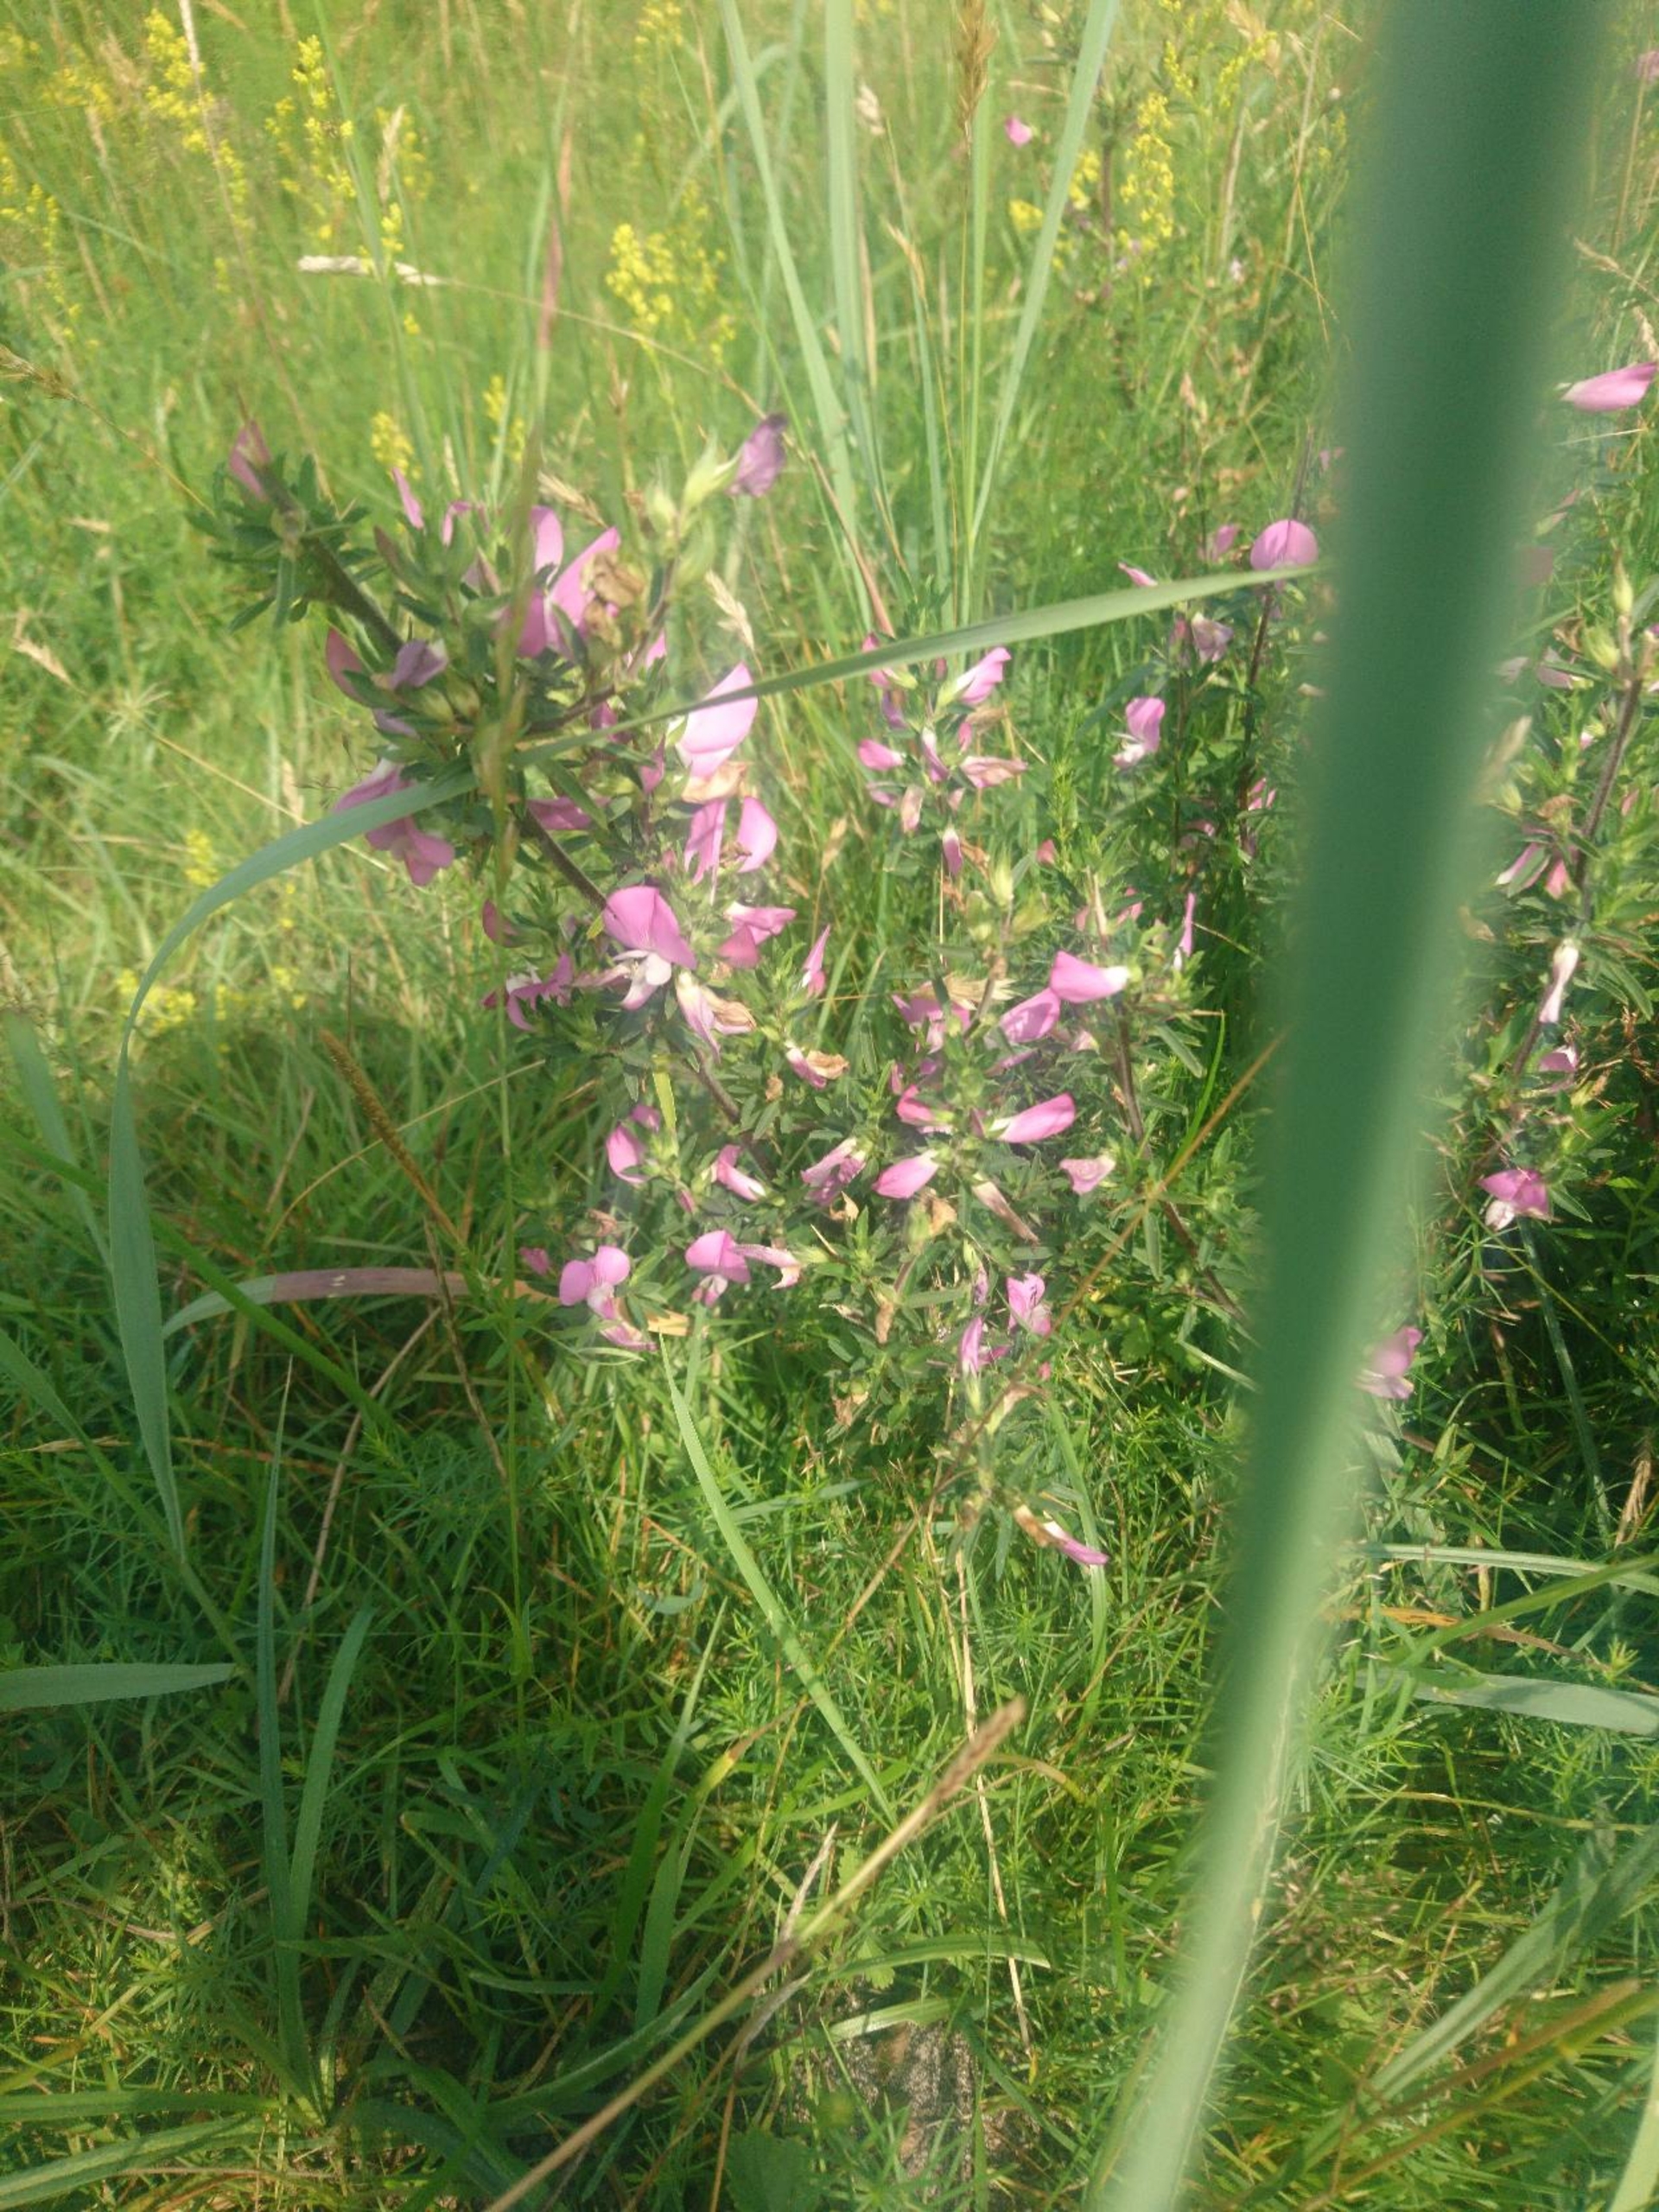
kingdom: Plantae
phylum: Tracheophyta
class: Magnoliopsida
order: Fabales
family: Fabaceae
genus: Ononis
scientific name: Ononis spinosa
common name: Strand-krageklo
